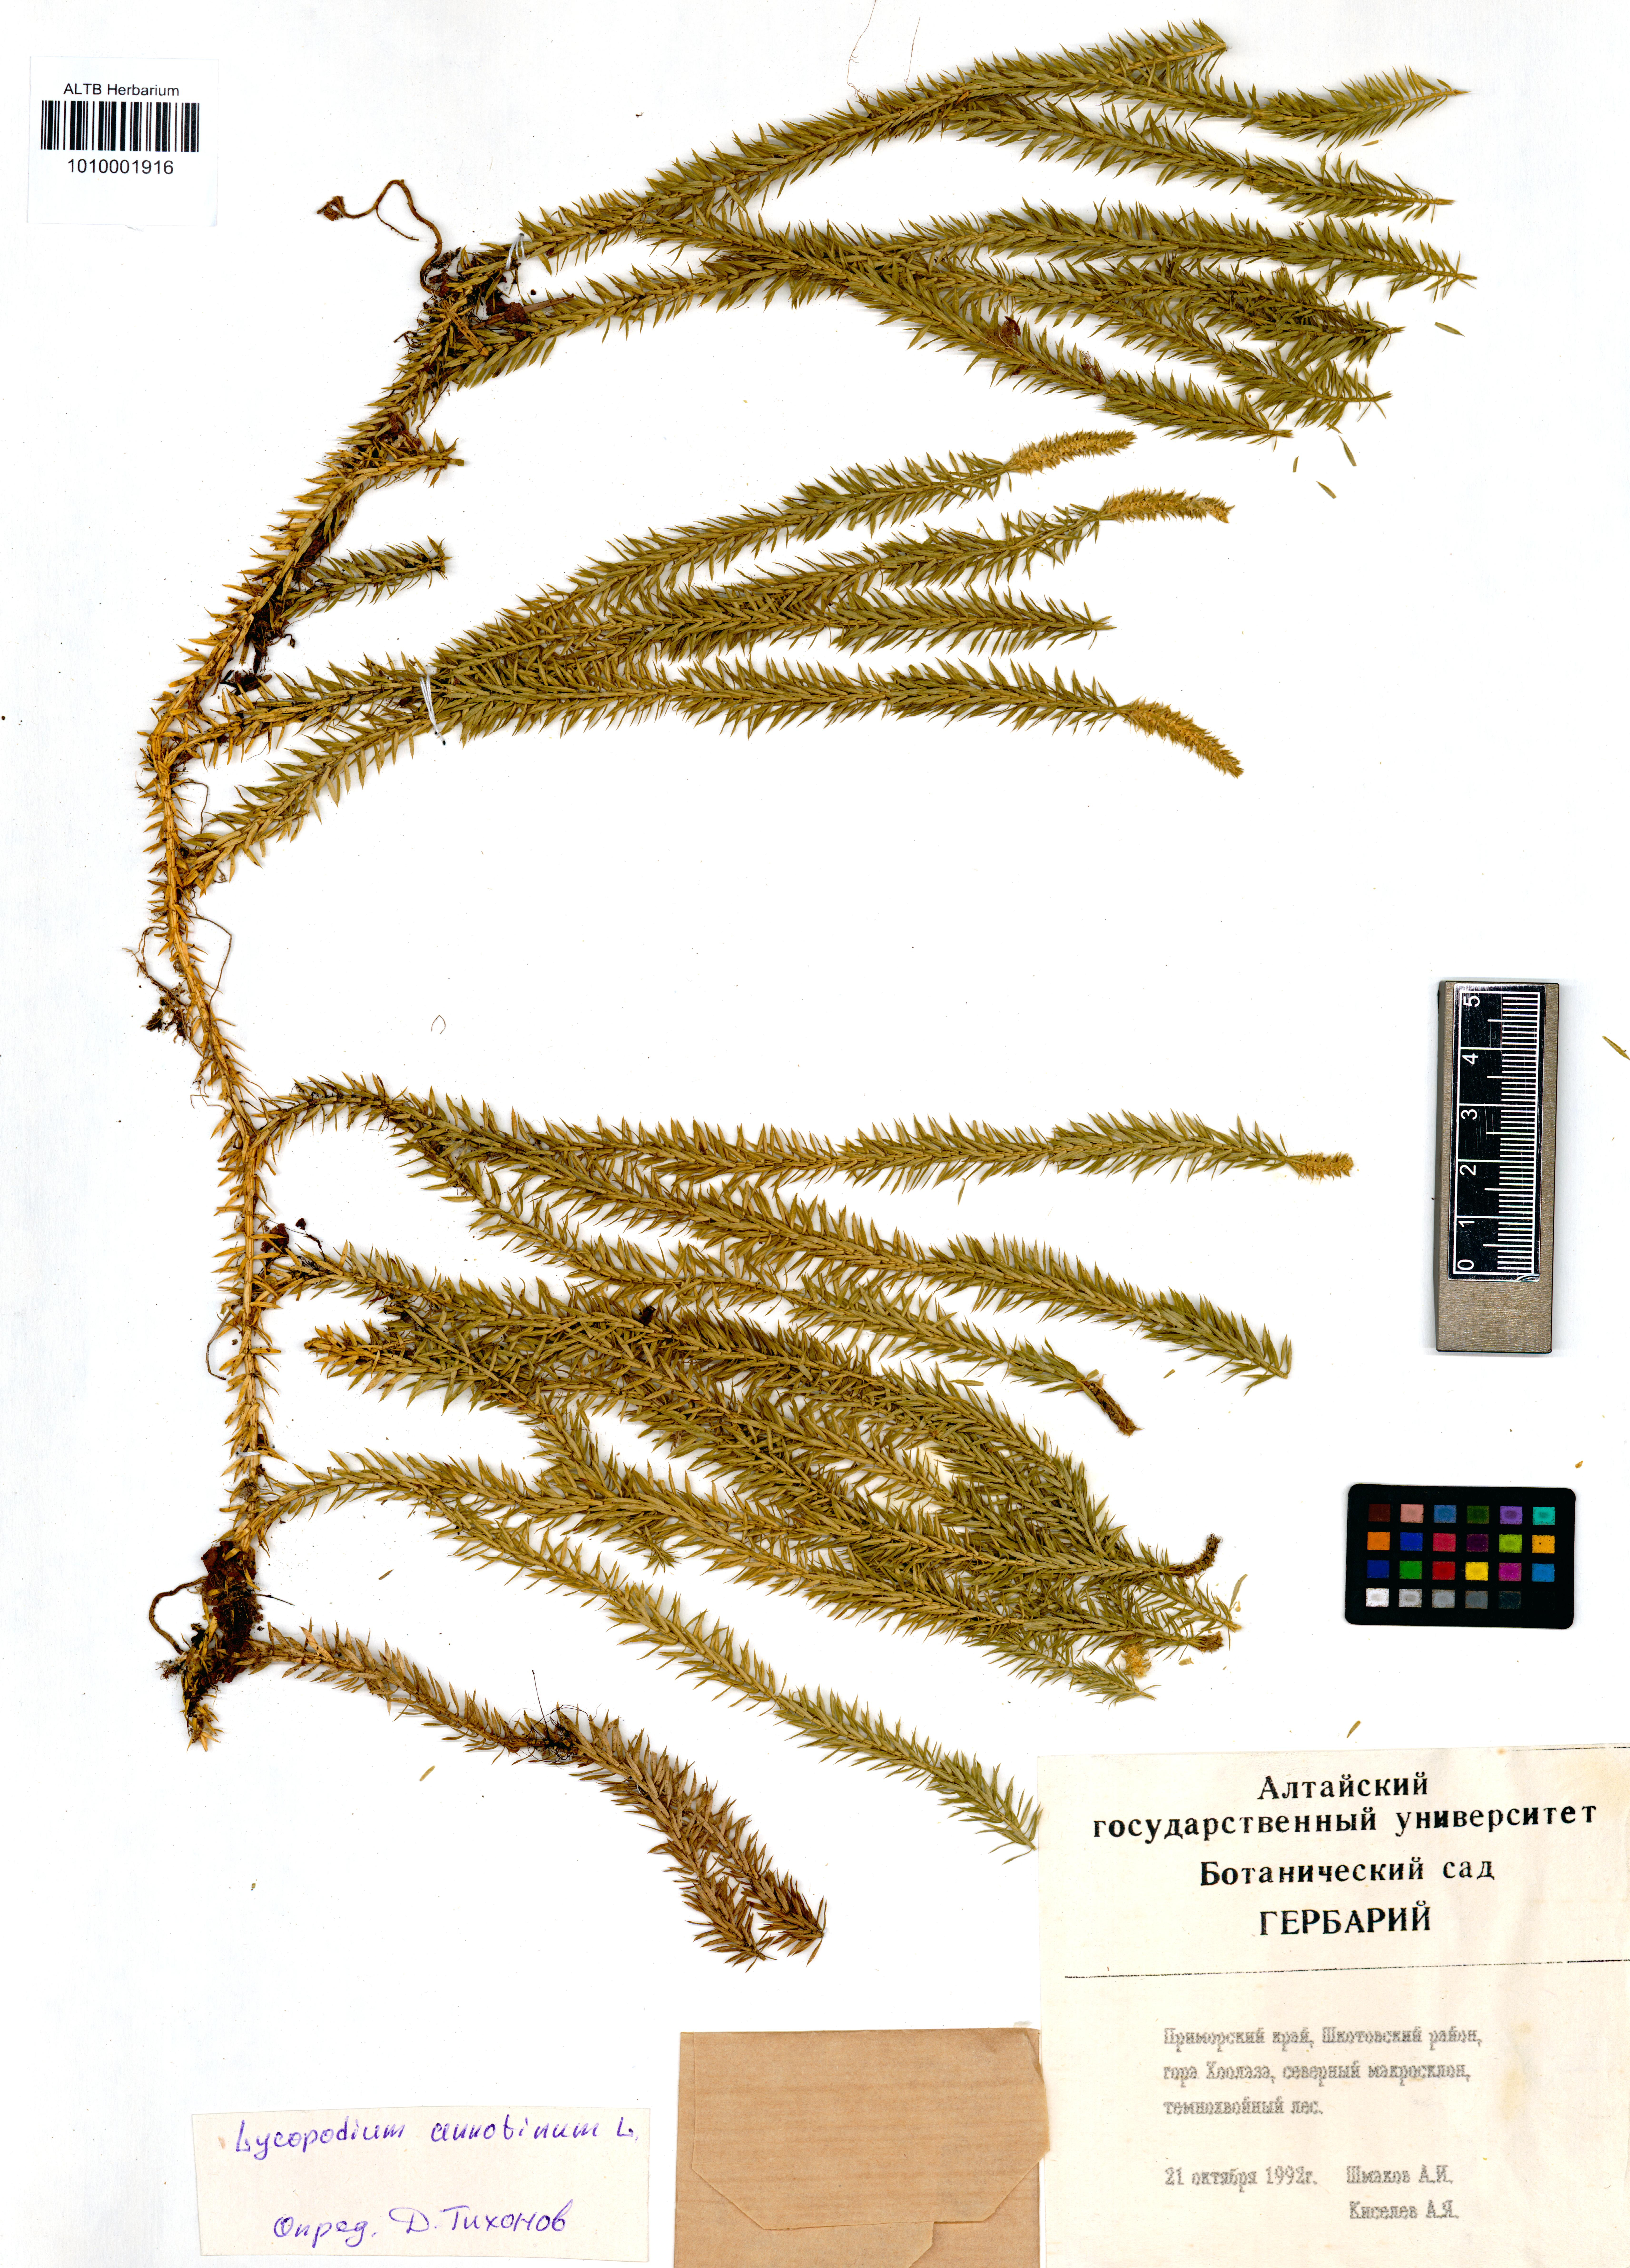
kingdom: Plantae
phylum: Tracheophyta
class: Lycopodiopsida
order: Lycopodiales
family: Lycopodiaceae
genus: Spinulum
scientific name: Spinulum annotinum
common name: Interrupted club-moss
